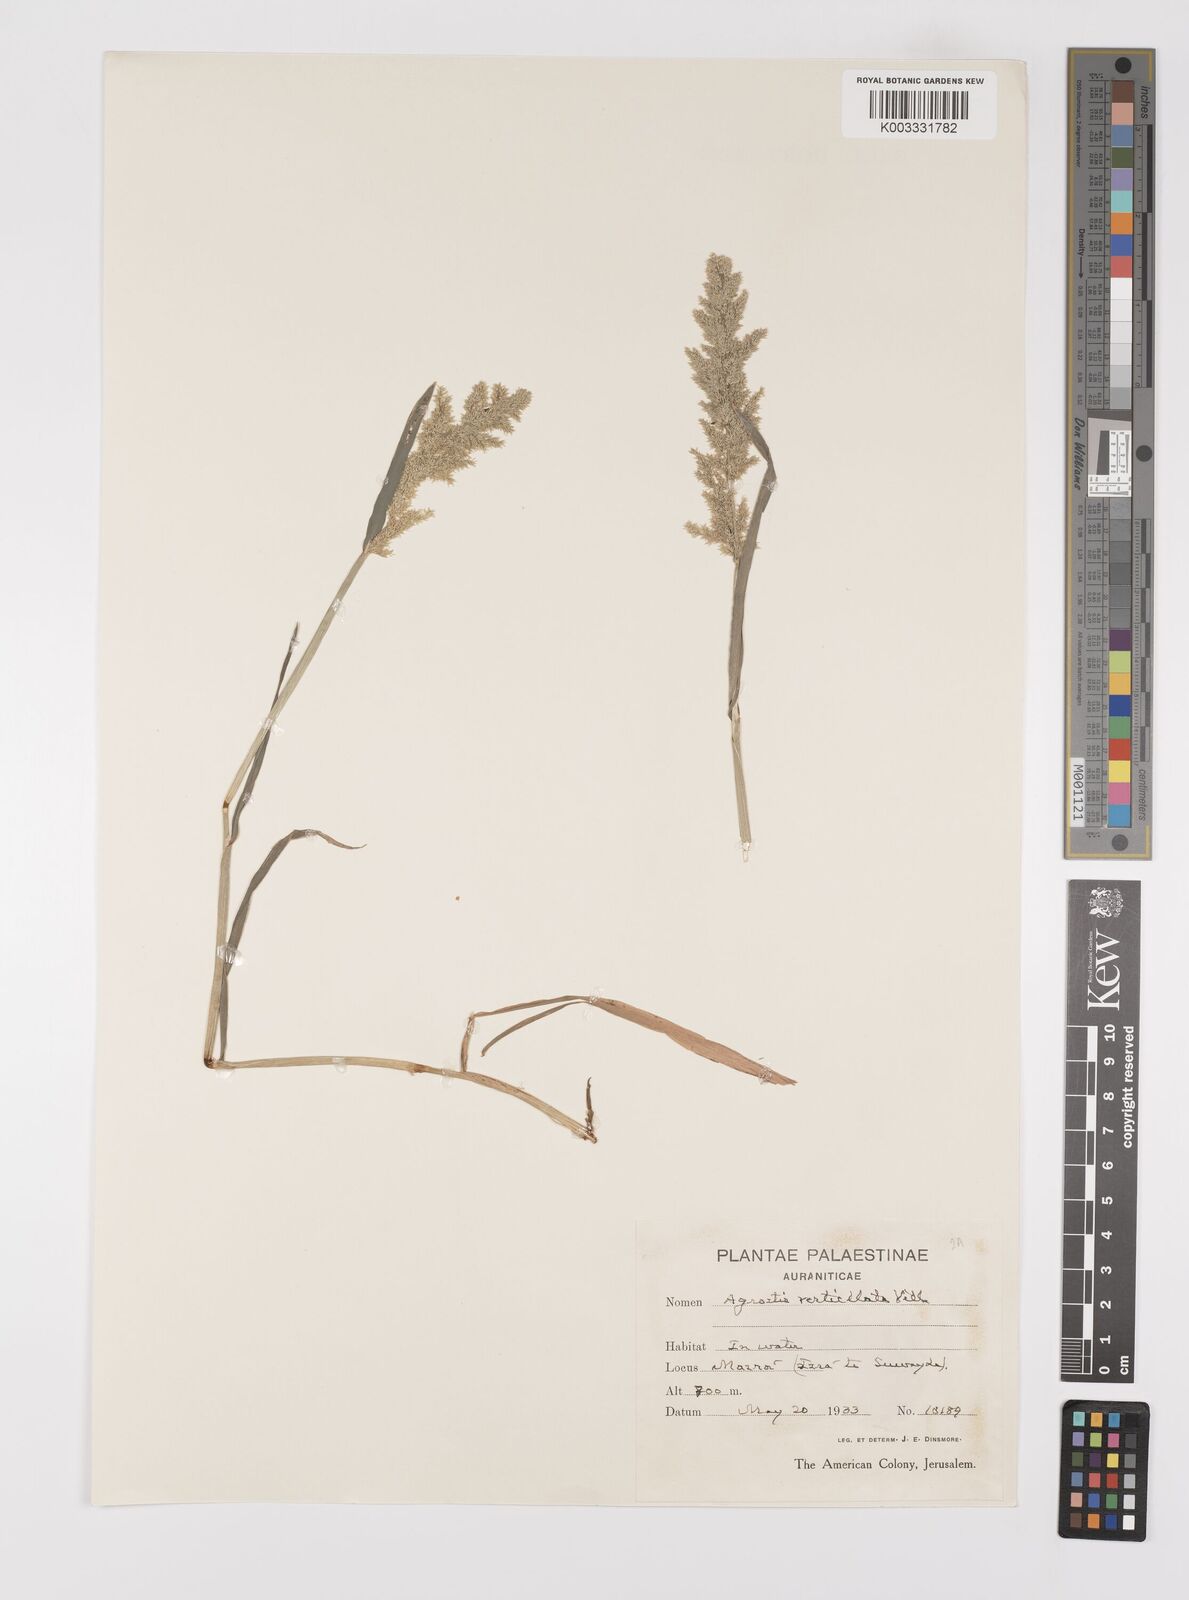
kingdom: Plantae
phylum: Tracheophyta
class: Liliopsida
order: Poales
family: Poaceae
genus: Polypogon
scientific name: Polypogon viridis
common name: Water bent
